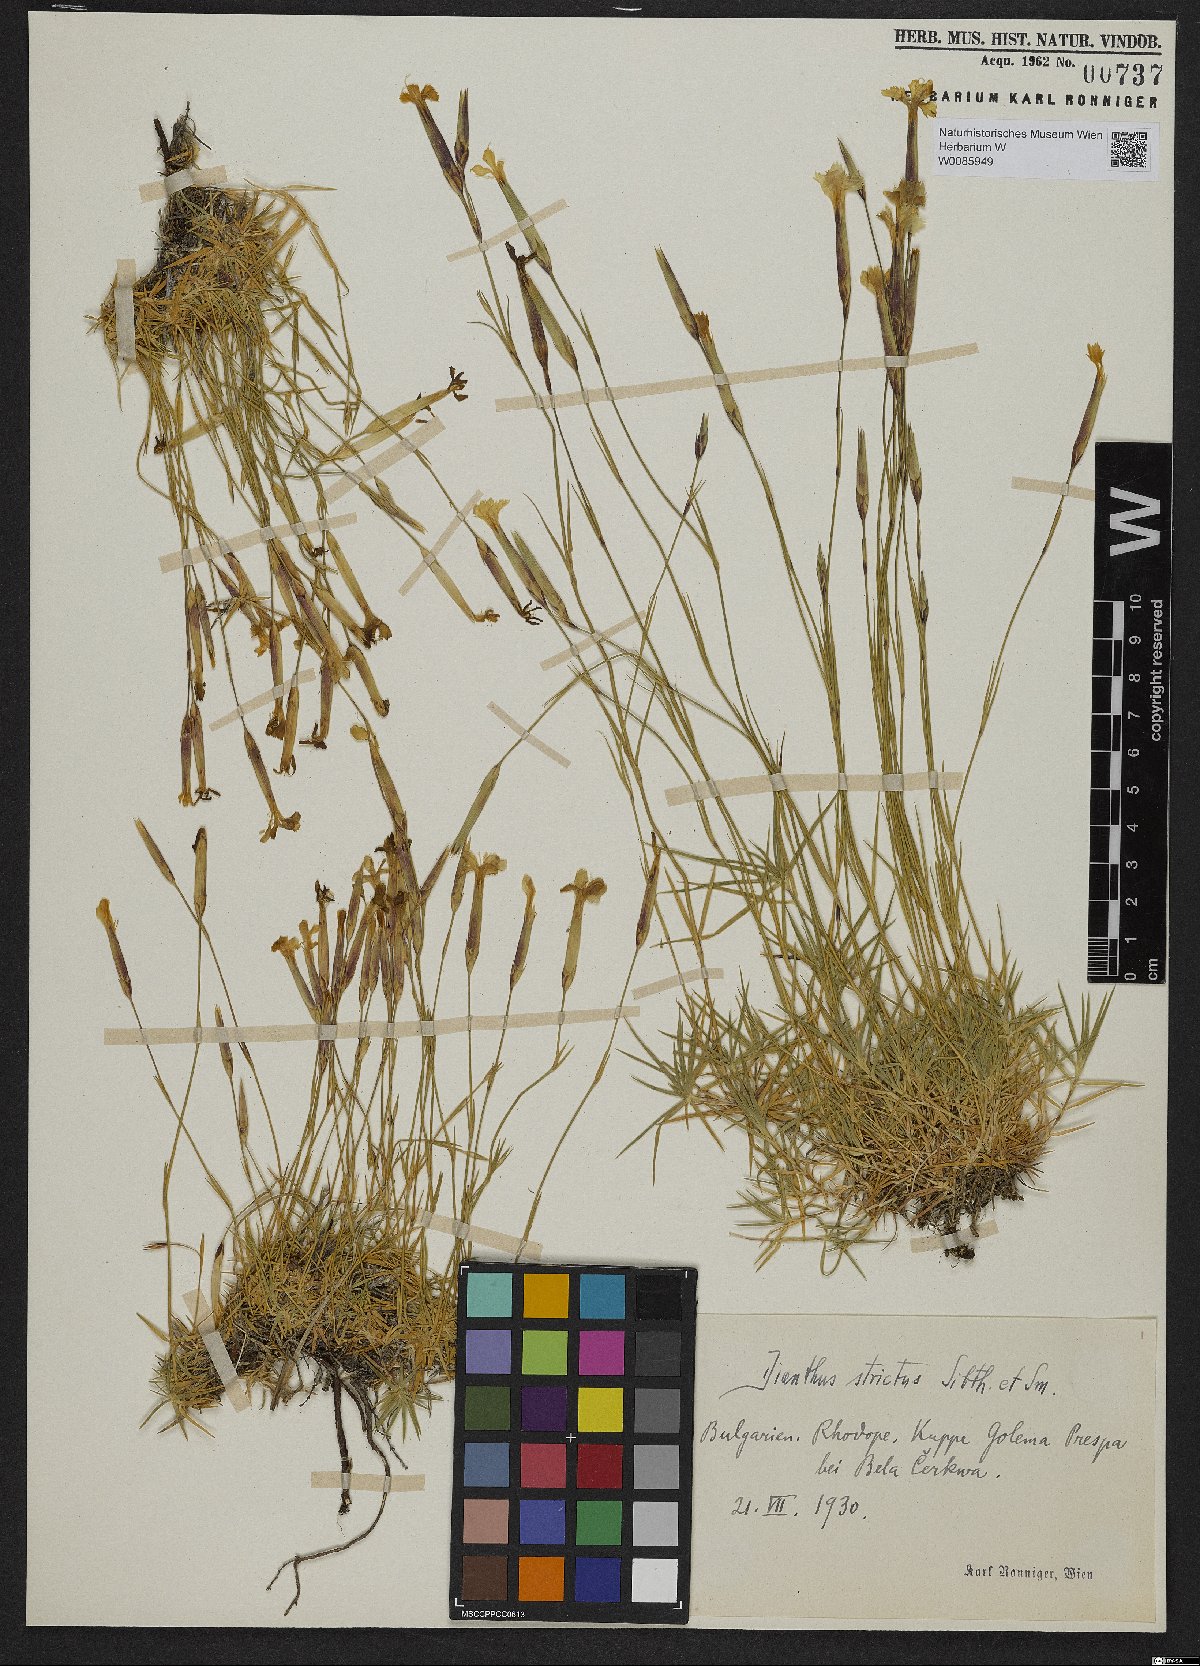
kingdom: Plantae
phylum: Tracheophyta
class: Magnoliopsida
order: Caryophyllales
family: Caryophyllaceae
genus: Dianthus
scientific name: Dianthus petraeus
